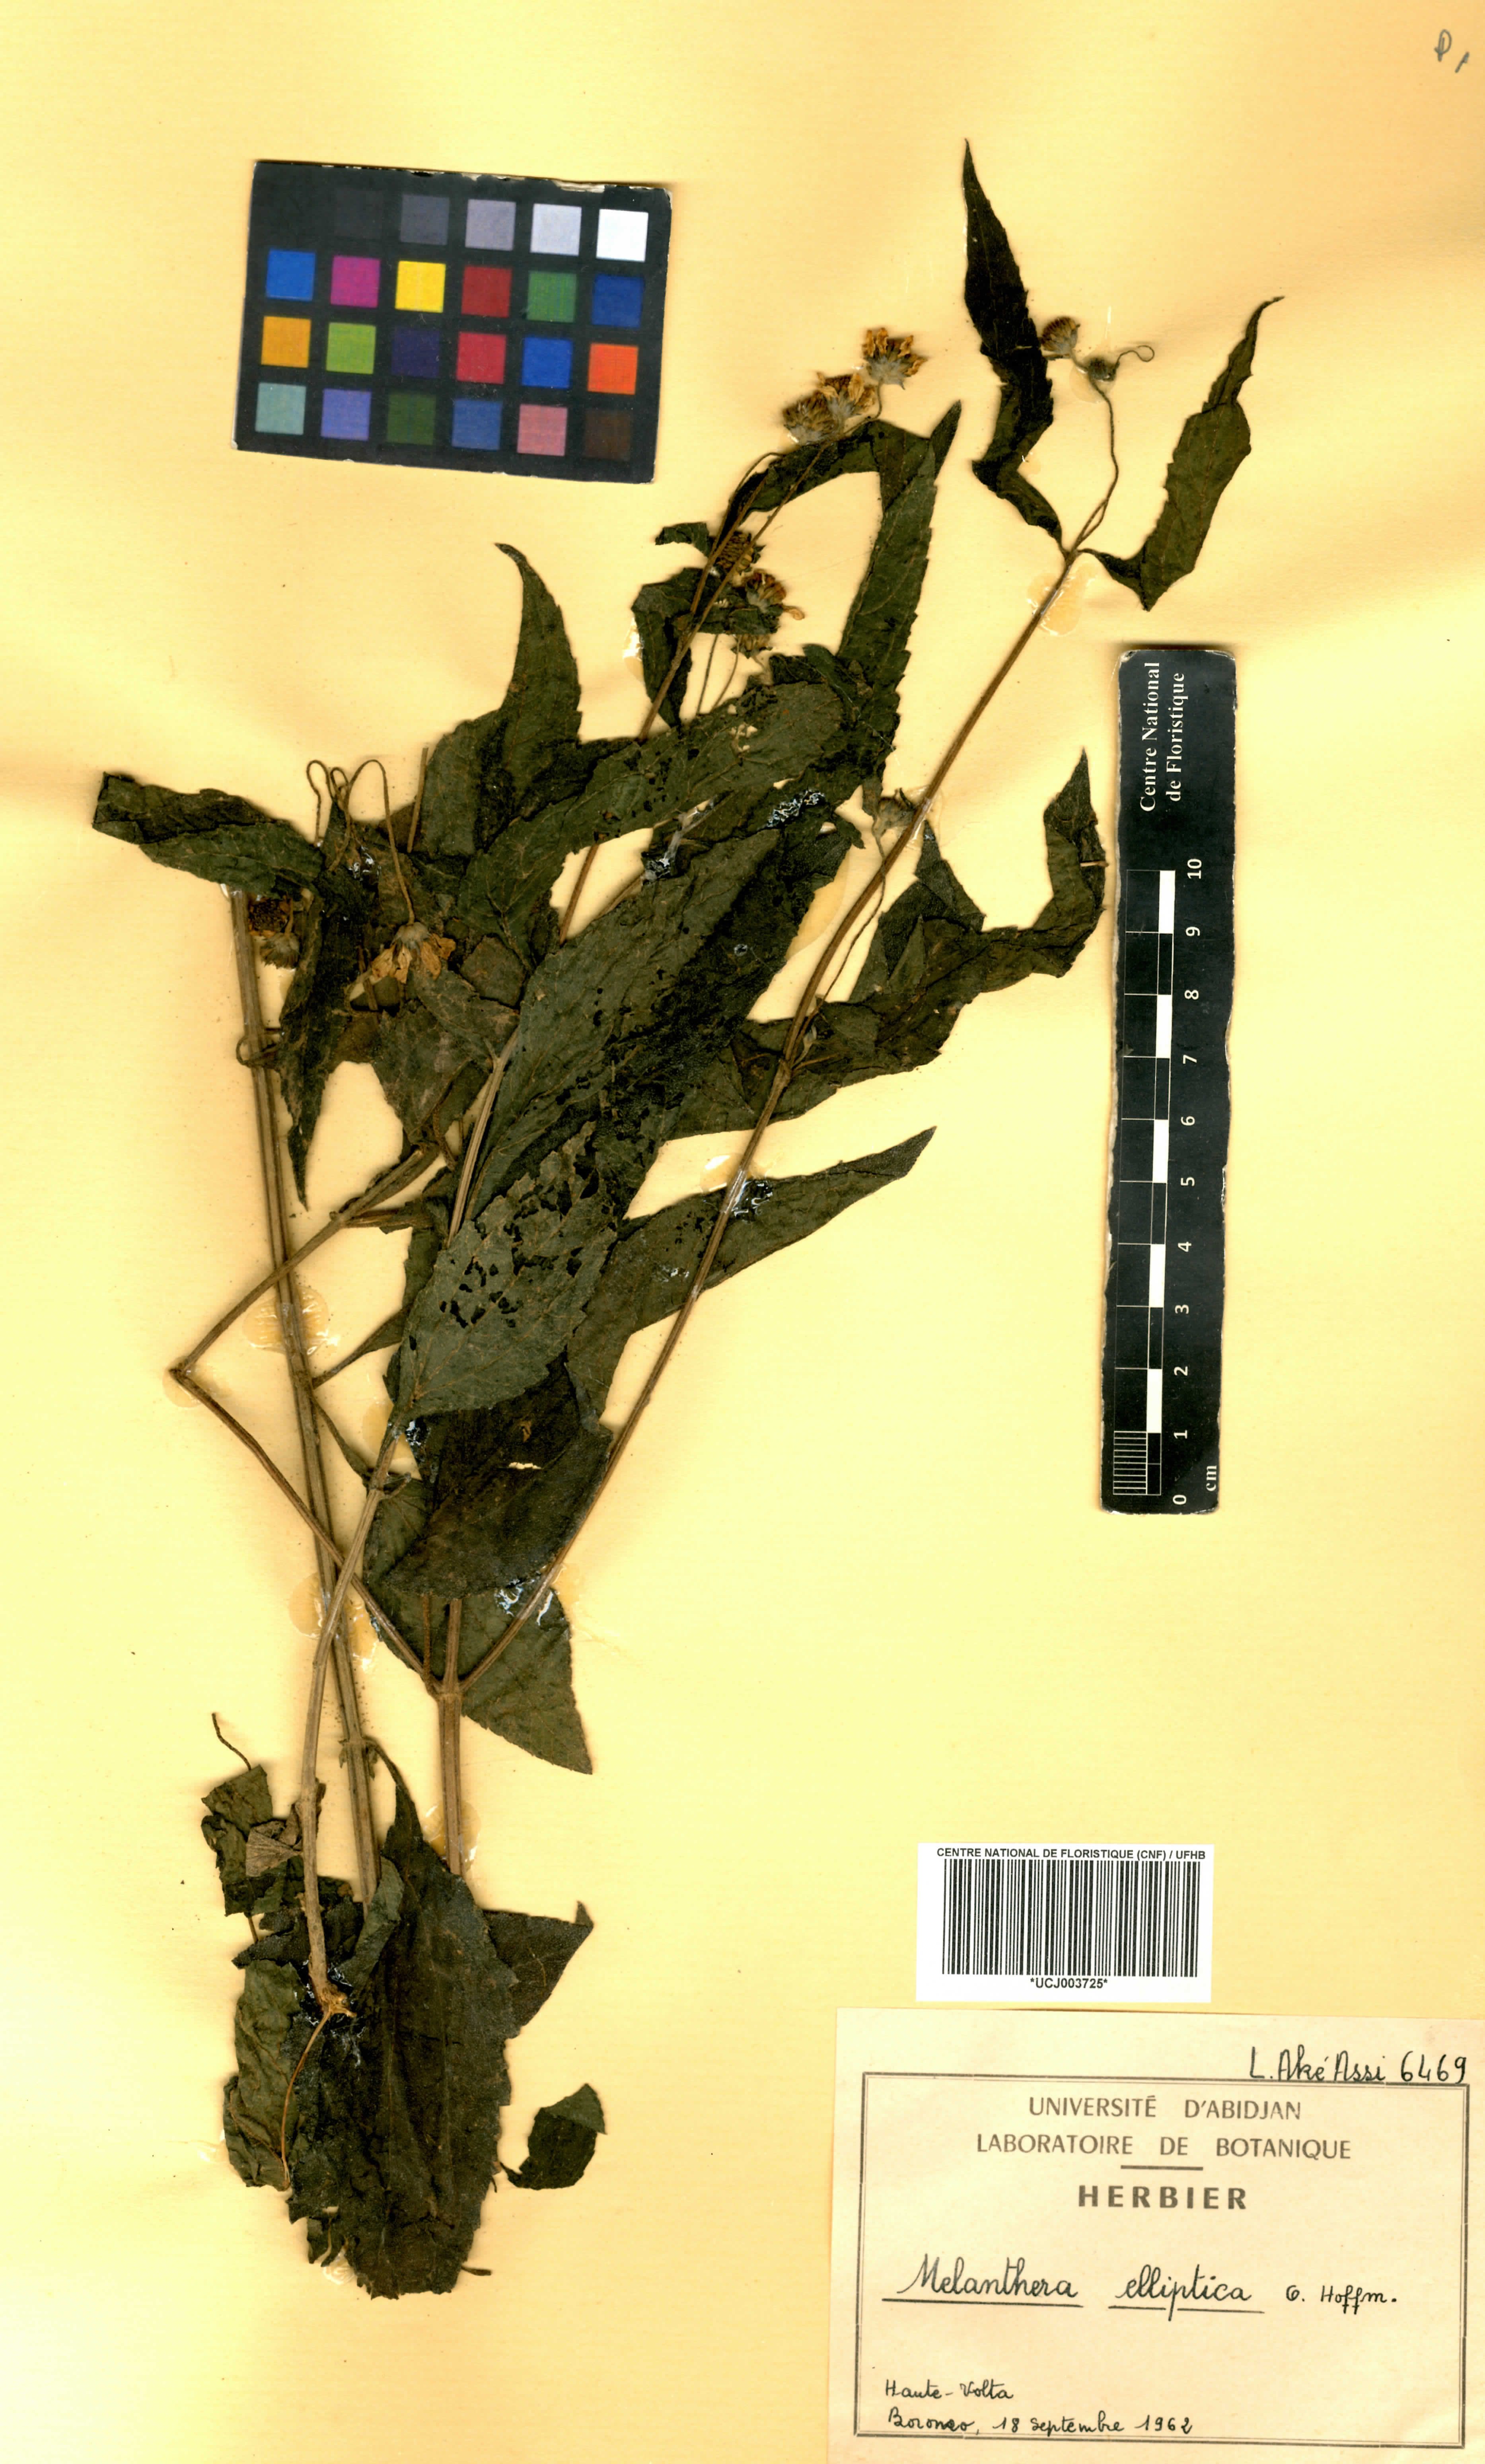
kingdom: Plantae
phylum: Tracheophyta
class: Magnoliopsida
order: Asterales
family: Asteraceae
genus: Lipotriche
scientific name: Lipotriche elliptica
